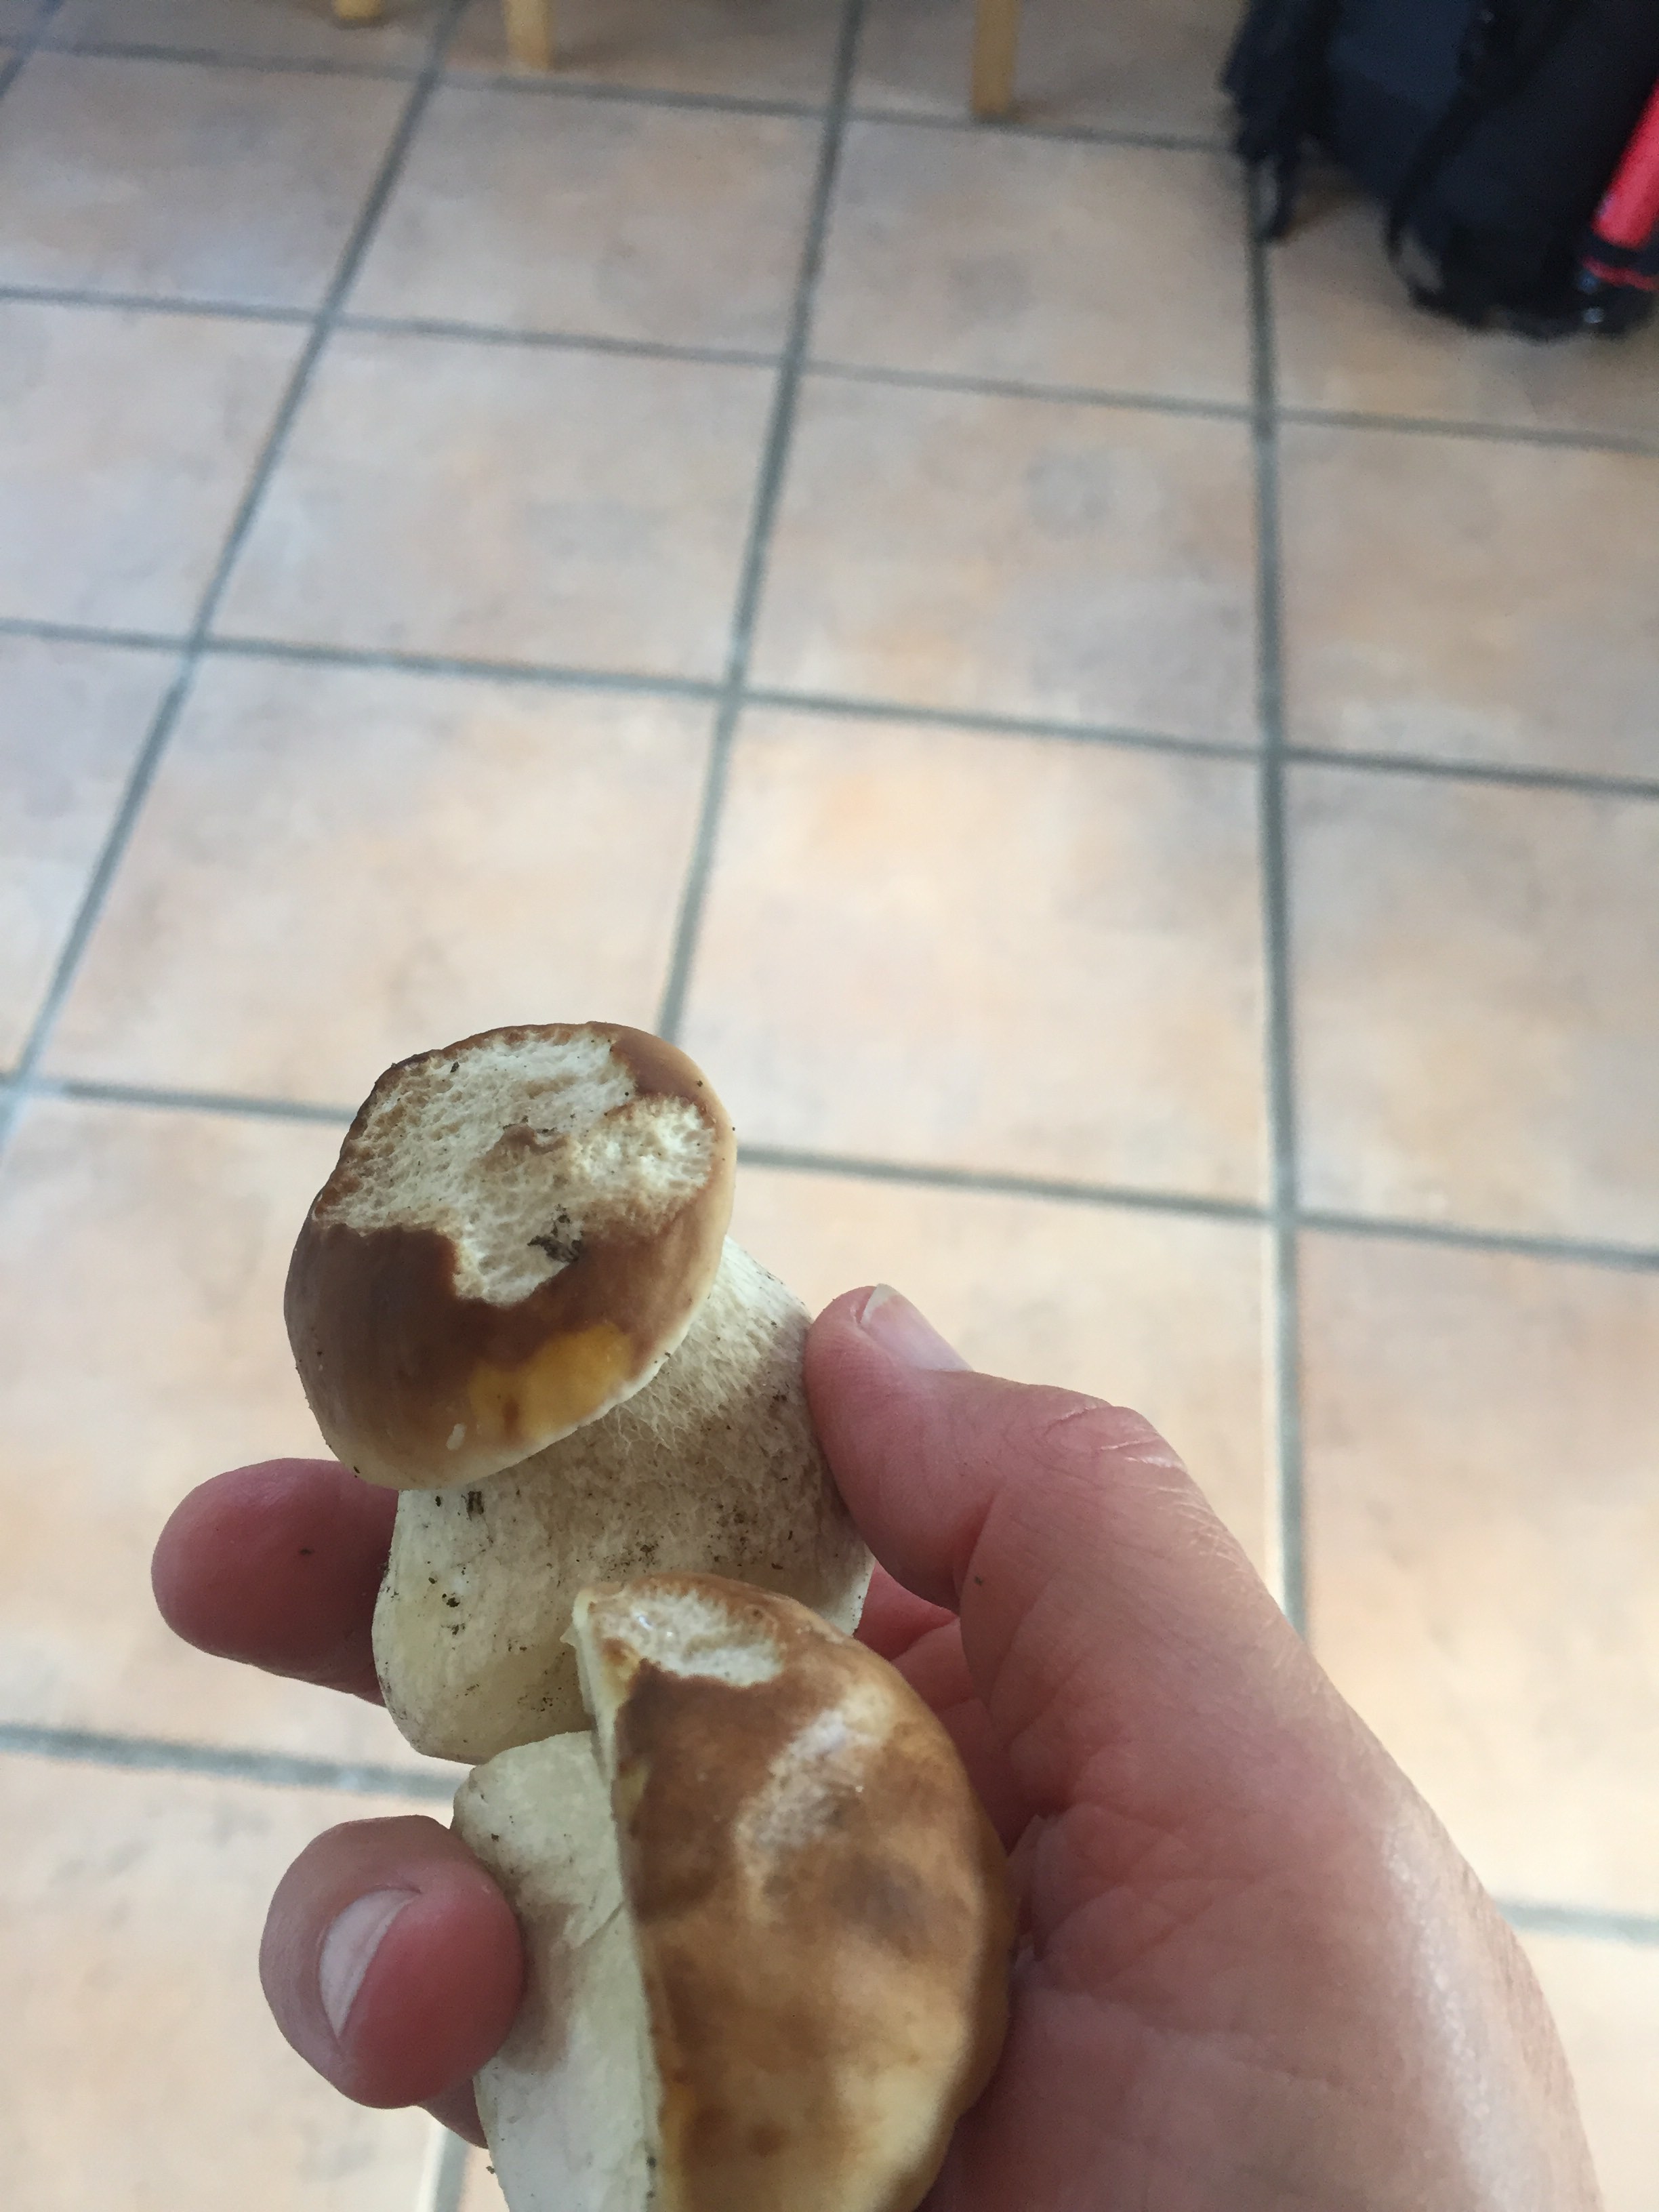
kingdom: Fungi
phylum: Basidiomycota
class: Agaricomycetes
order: Boletales
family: Boletaceae
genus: Boletus
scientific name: Boletus edulis
